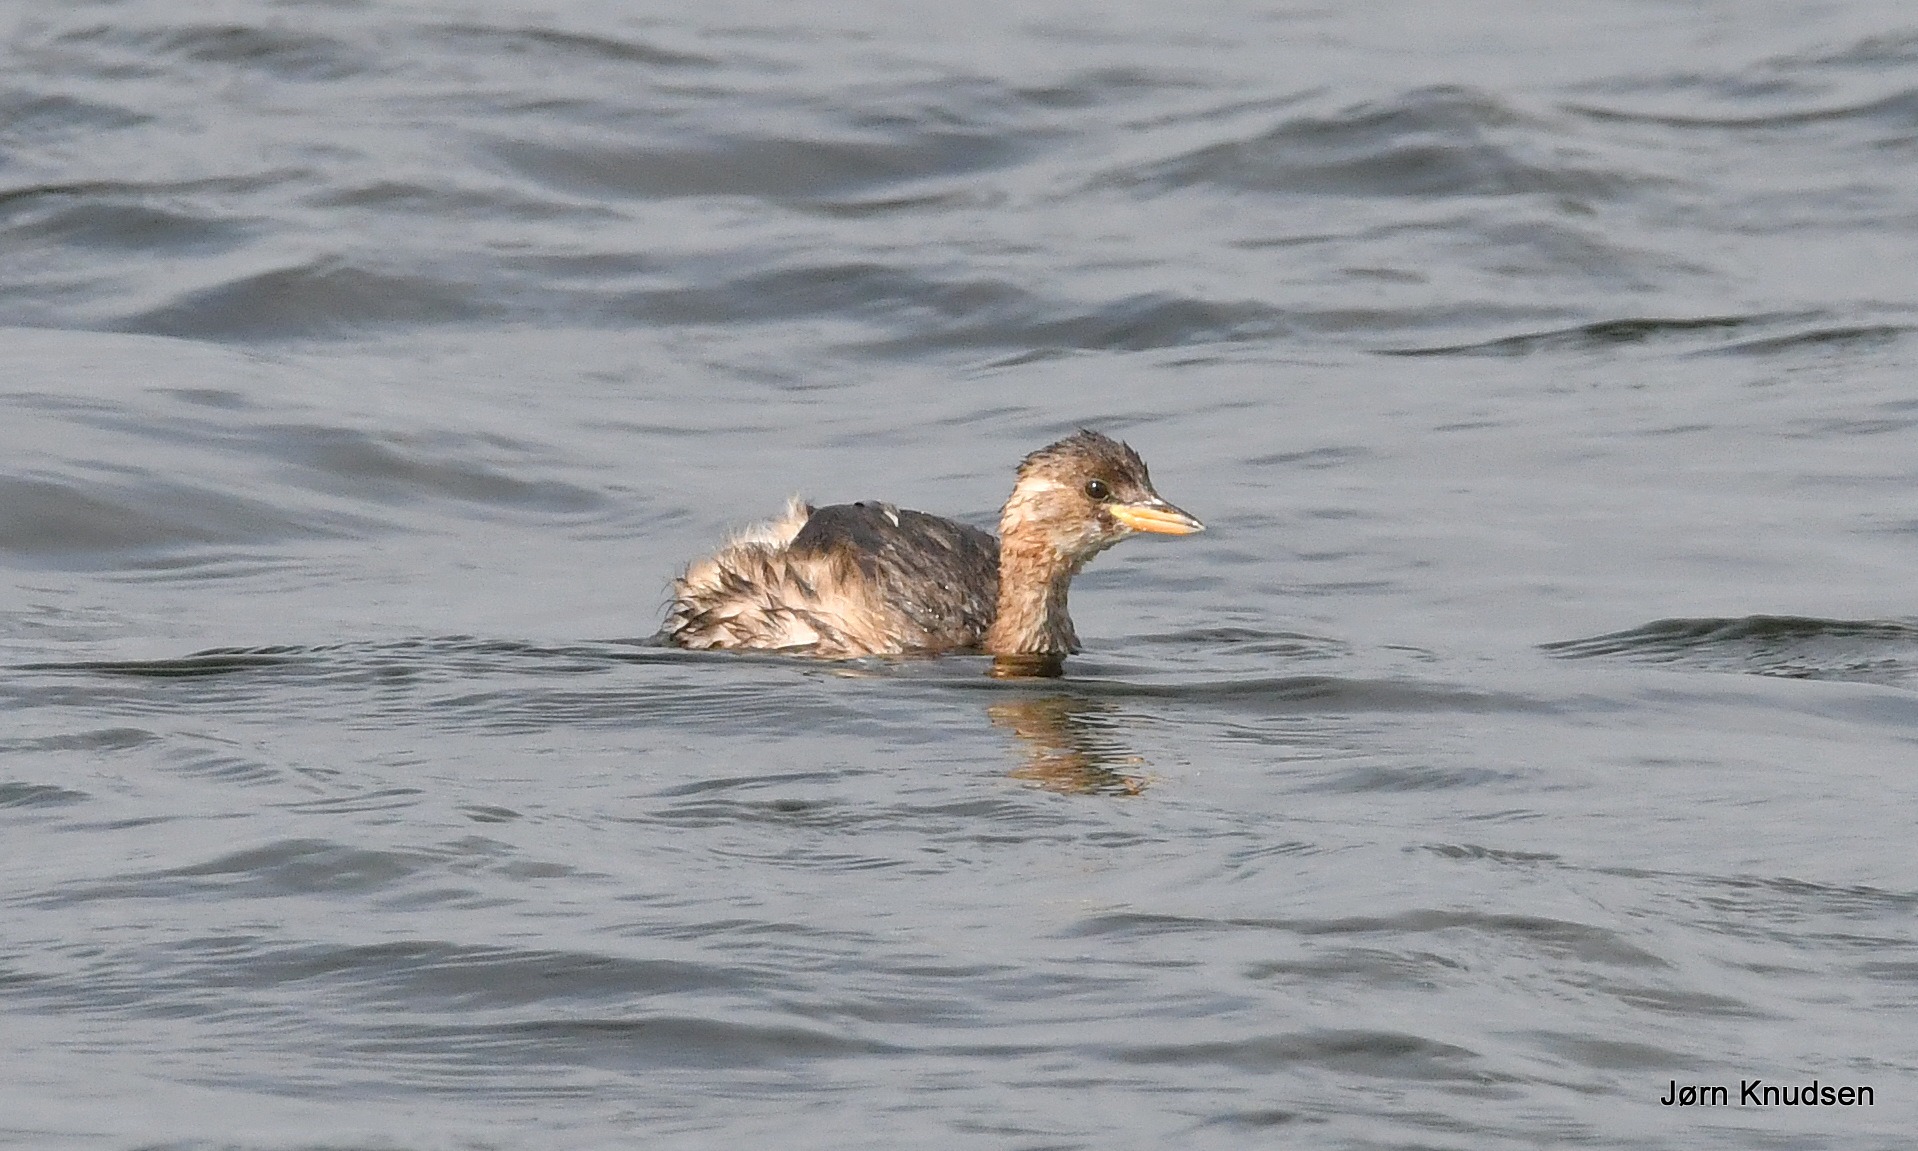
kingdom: Animalia
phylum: Chordata
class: Aves
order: Podicipediformes
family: Podicipedidae
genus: Tachybaptus
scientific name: Tachybaptus ruficollis
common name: Lille lappedykker
